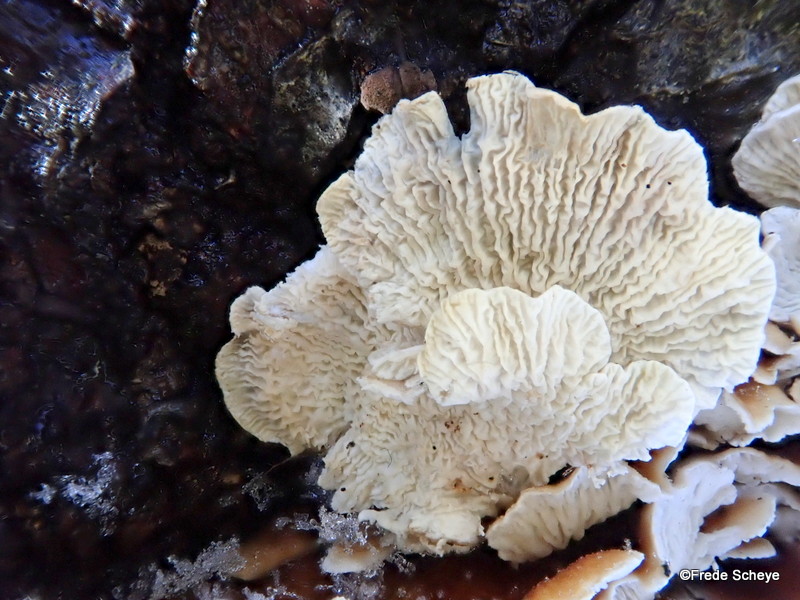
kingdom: Fungi
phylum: Basidiomycota
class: Agaricomycetes
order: Amylocorticiales
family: Amylocorticiaceae
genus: Plicaturopsis
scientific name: Plicaturopsis crispa
